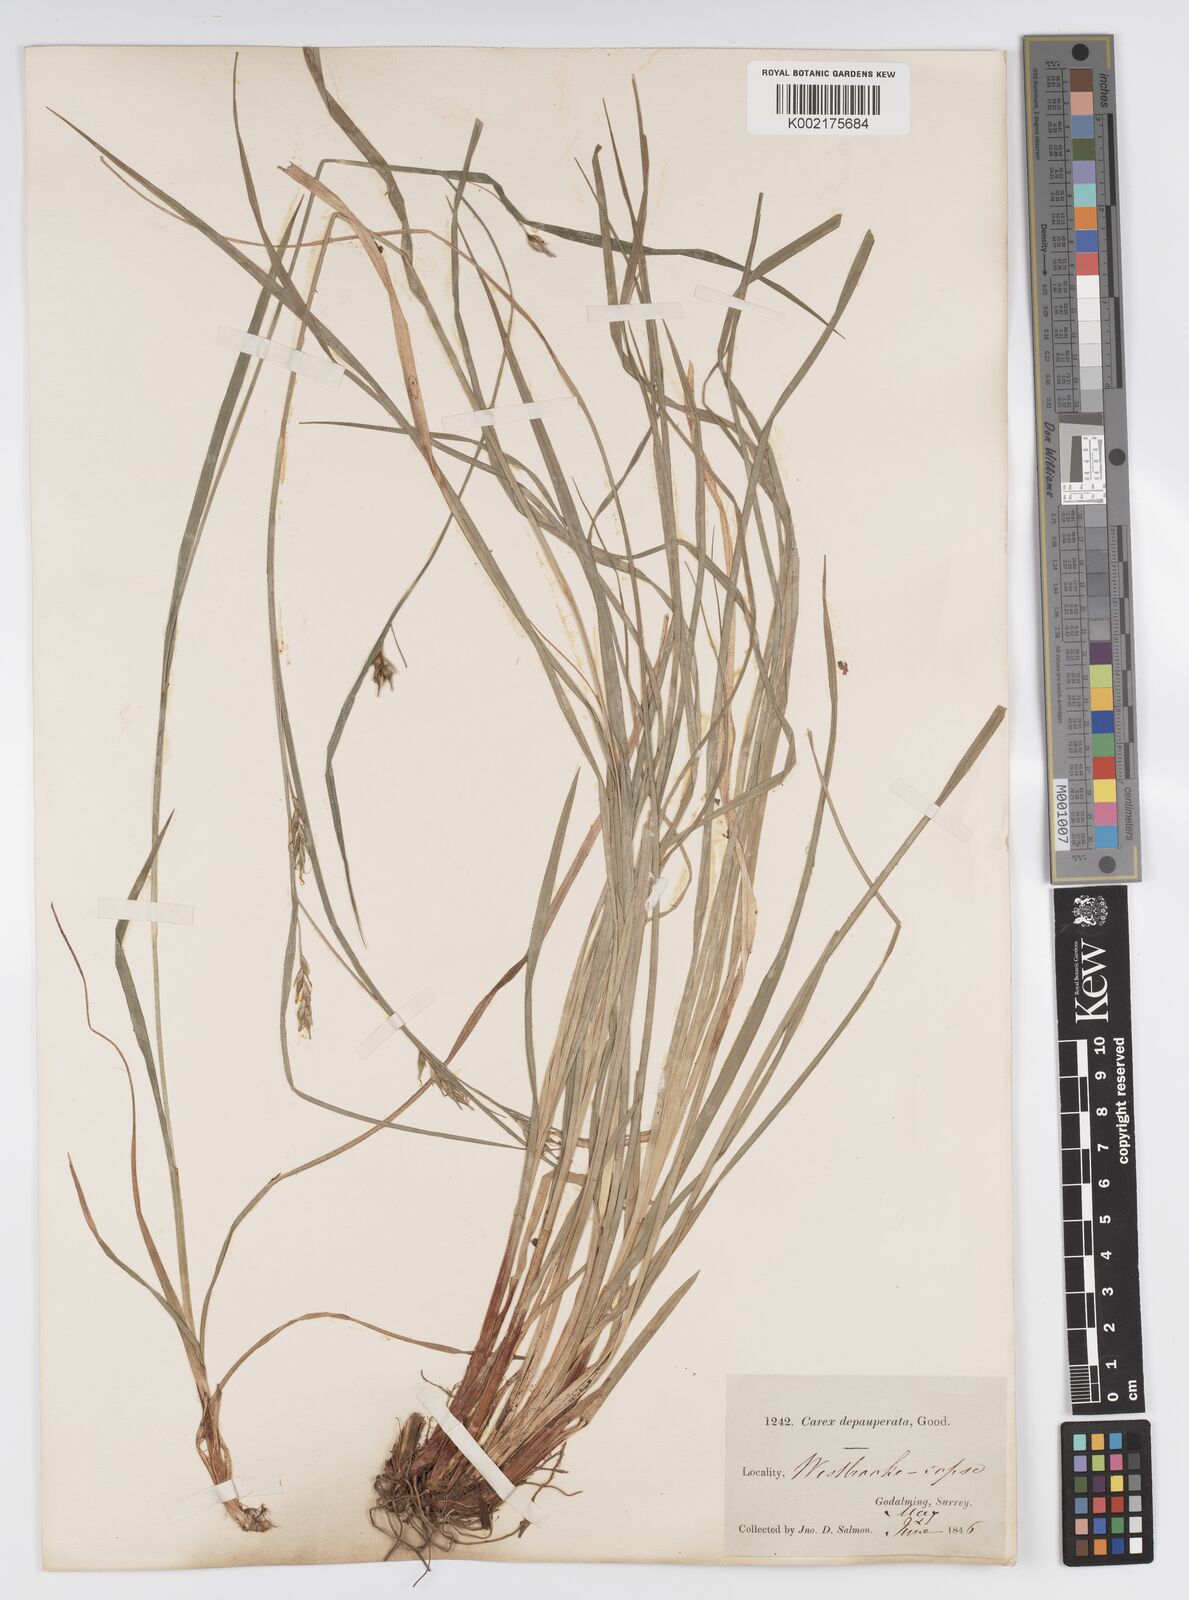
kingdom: Plantae
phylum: Tracheophyta
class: Liliopsida
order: Poales
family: Cyperaceae
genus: Carex
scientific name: Carex vaginata
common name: Sheathed sedge
